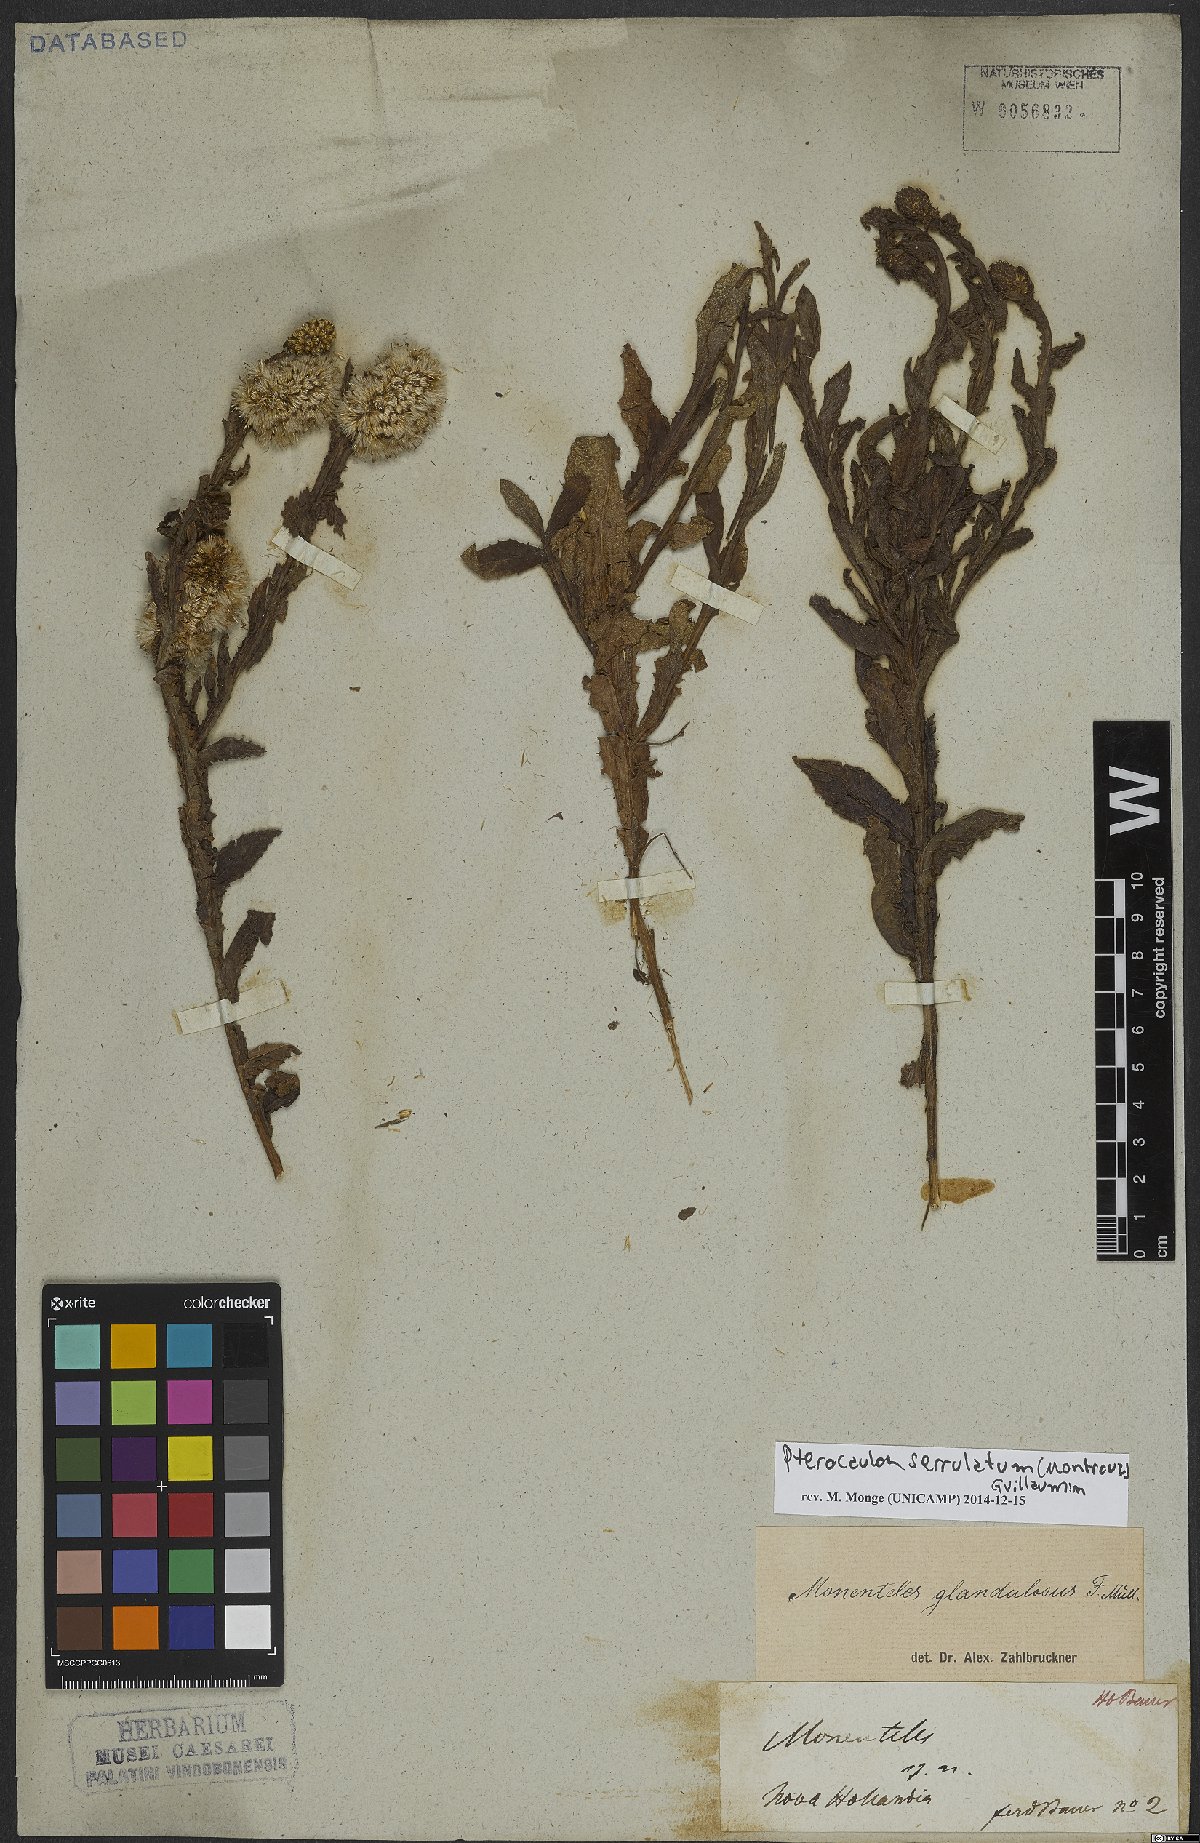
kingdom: Plantae
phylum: Tracheophyta
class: Magnoliopsida
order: Asterales
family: Asteraceae
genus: Pterocaulon
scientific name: Pterocaulon serrulatum
